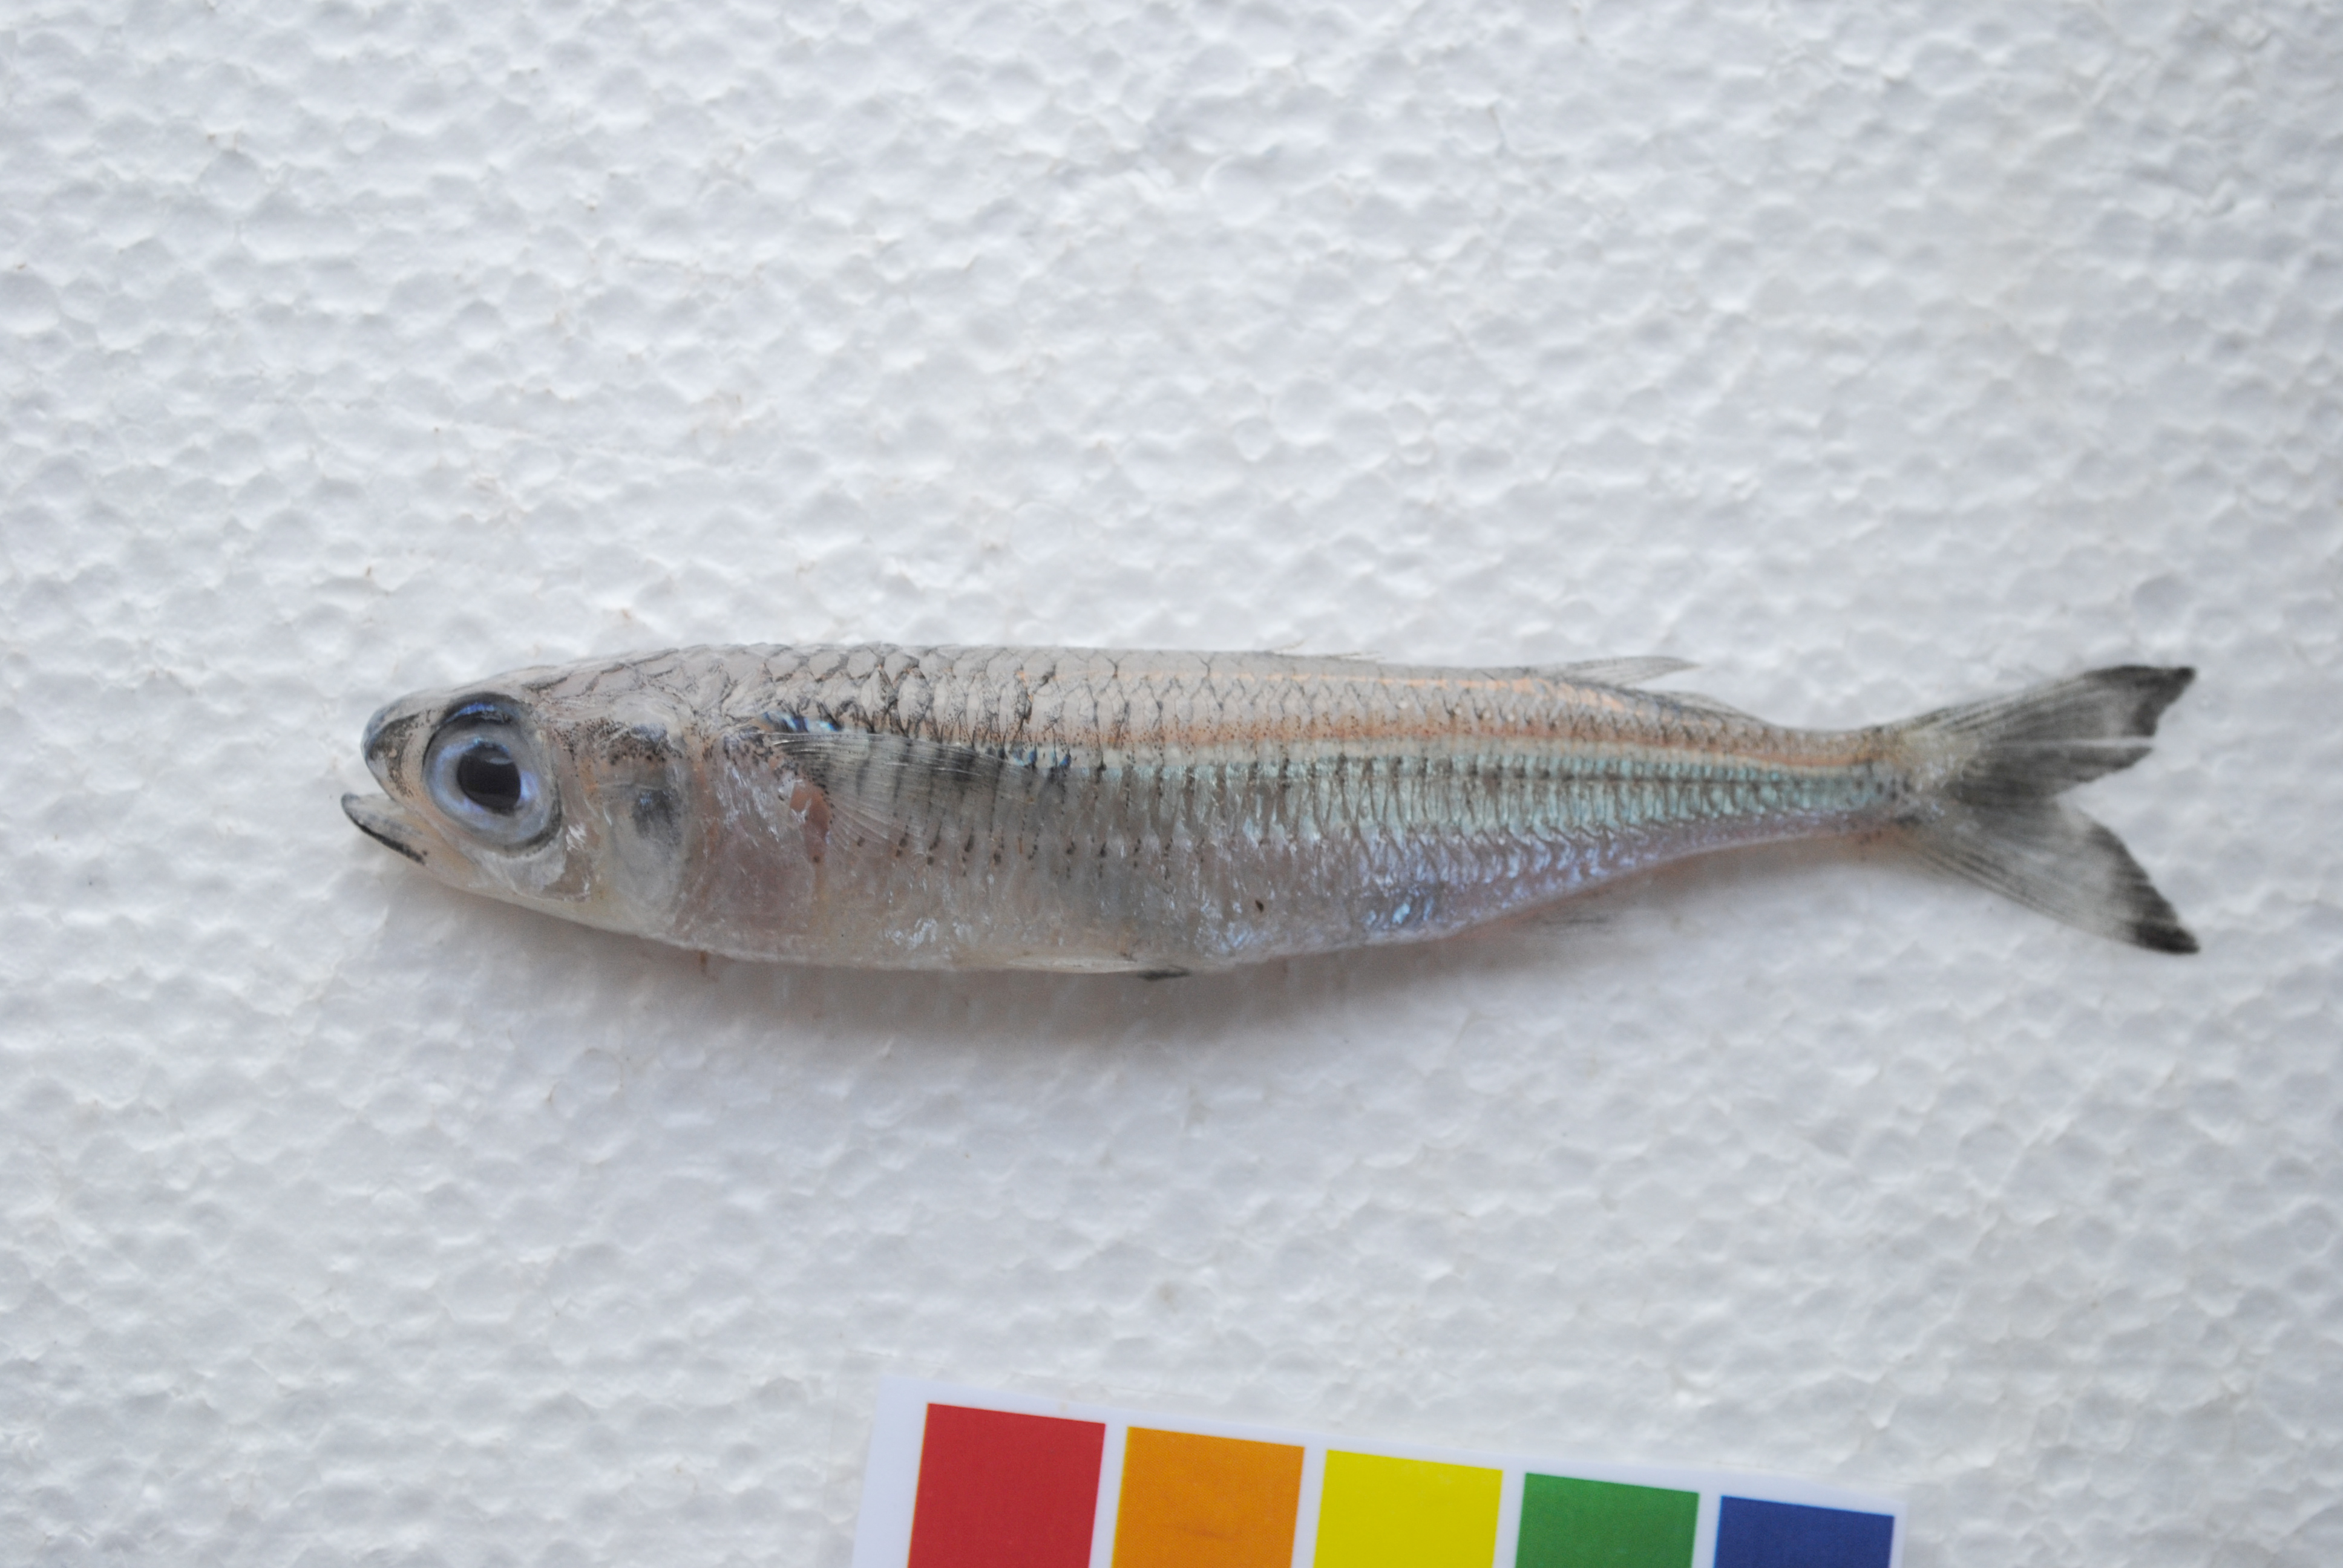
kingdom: Animalia
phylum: Chordata
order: Atheriniformes
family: Atherinidae
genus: Atherinomorus
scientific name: Atherinomorus duodecimalis
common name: Tropical silverside
